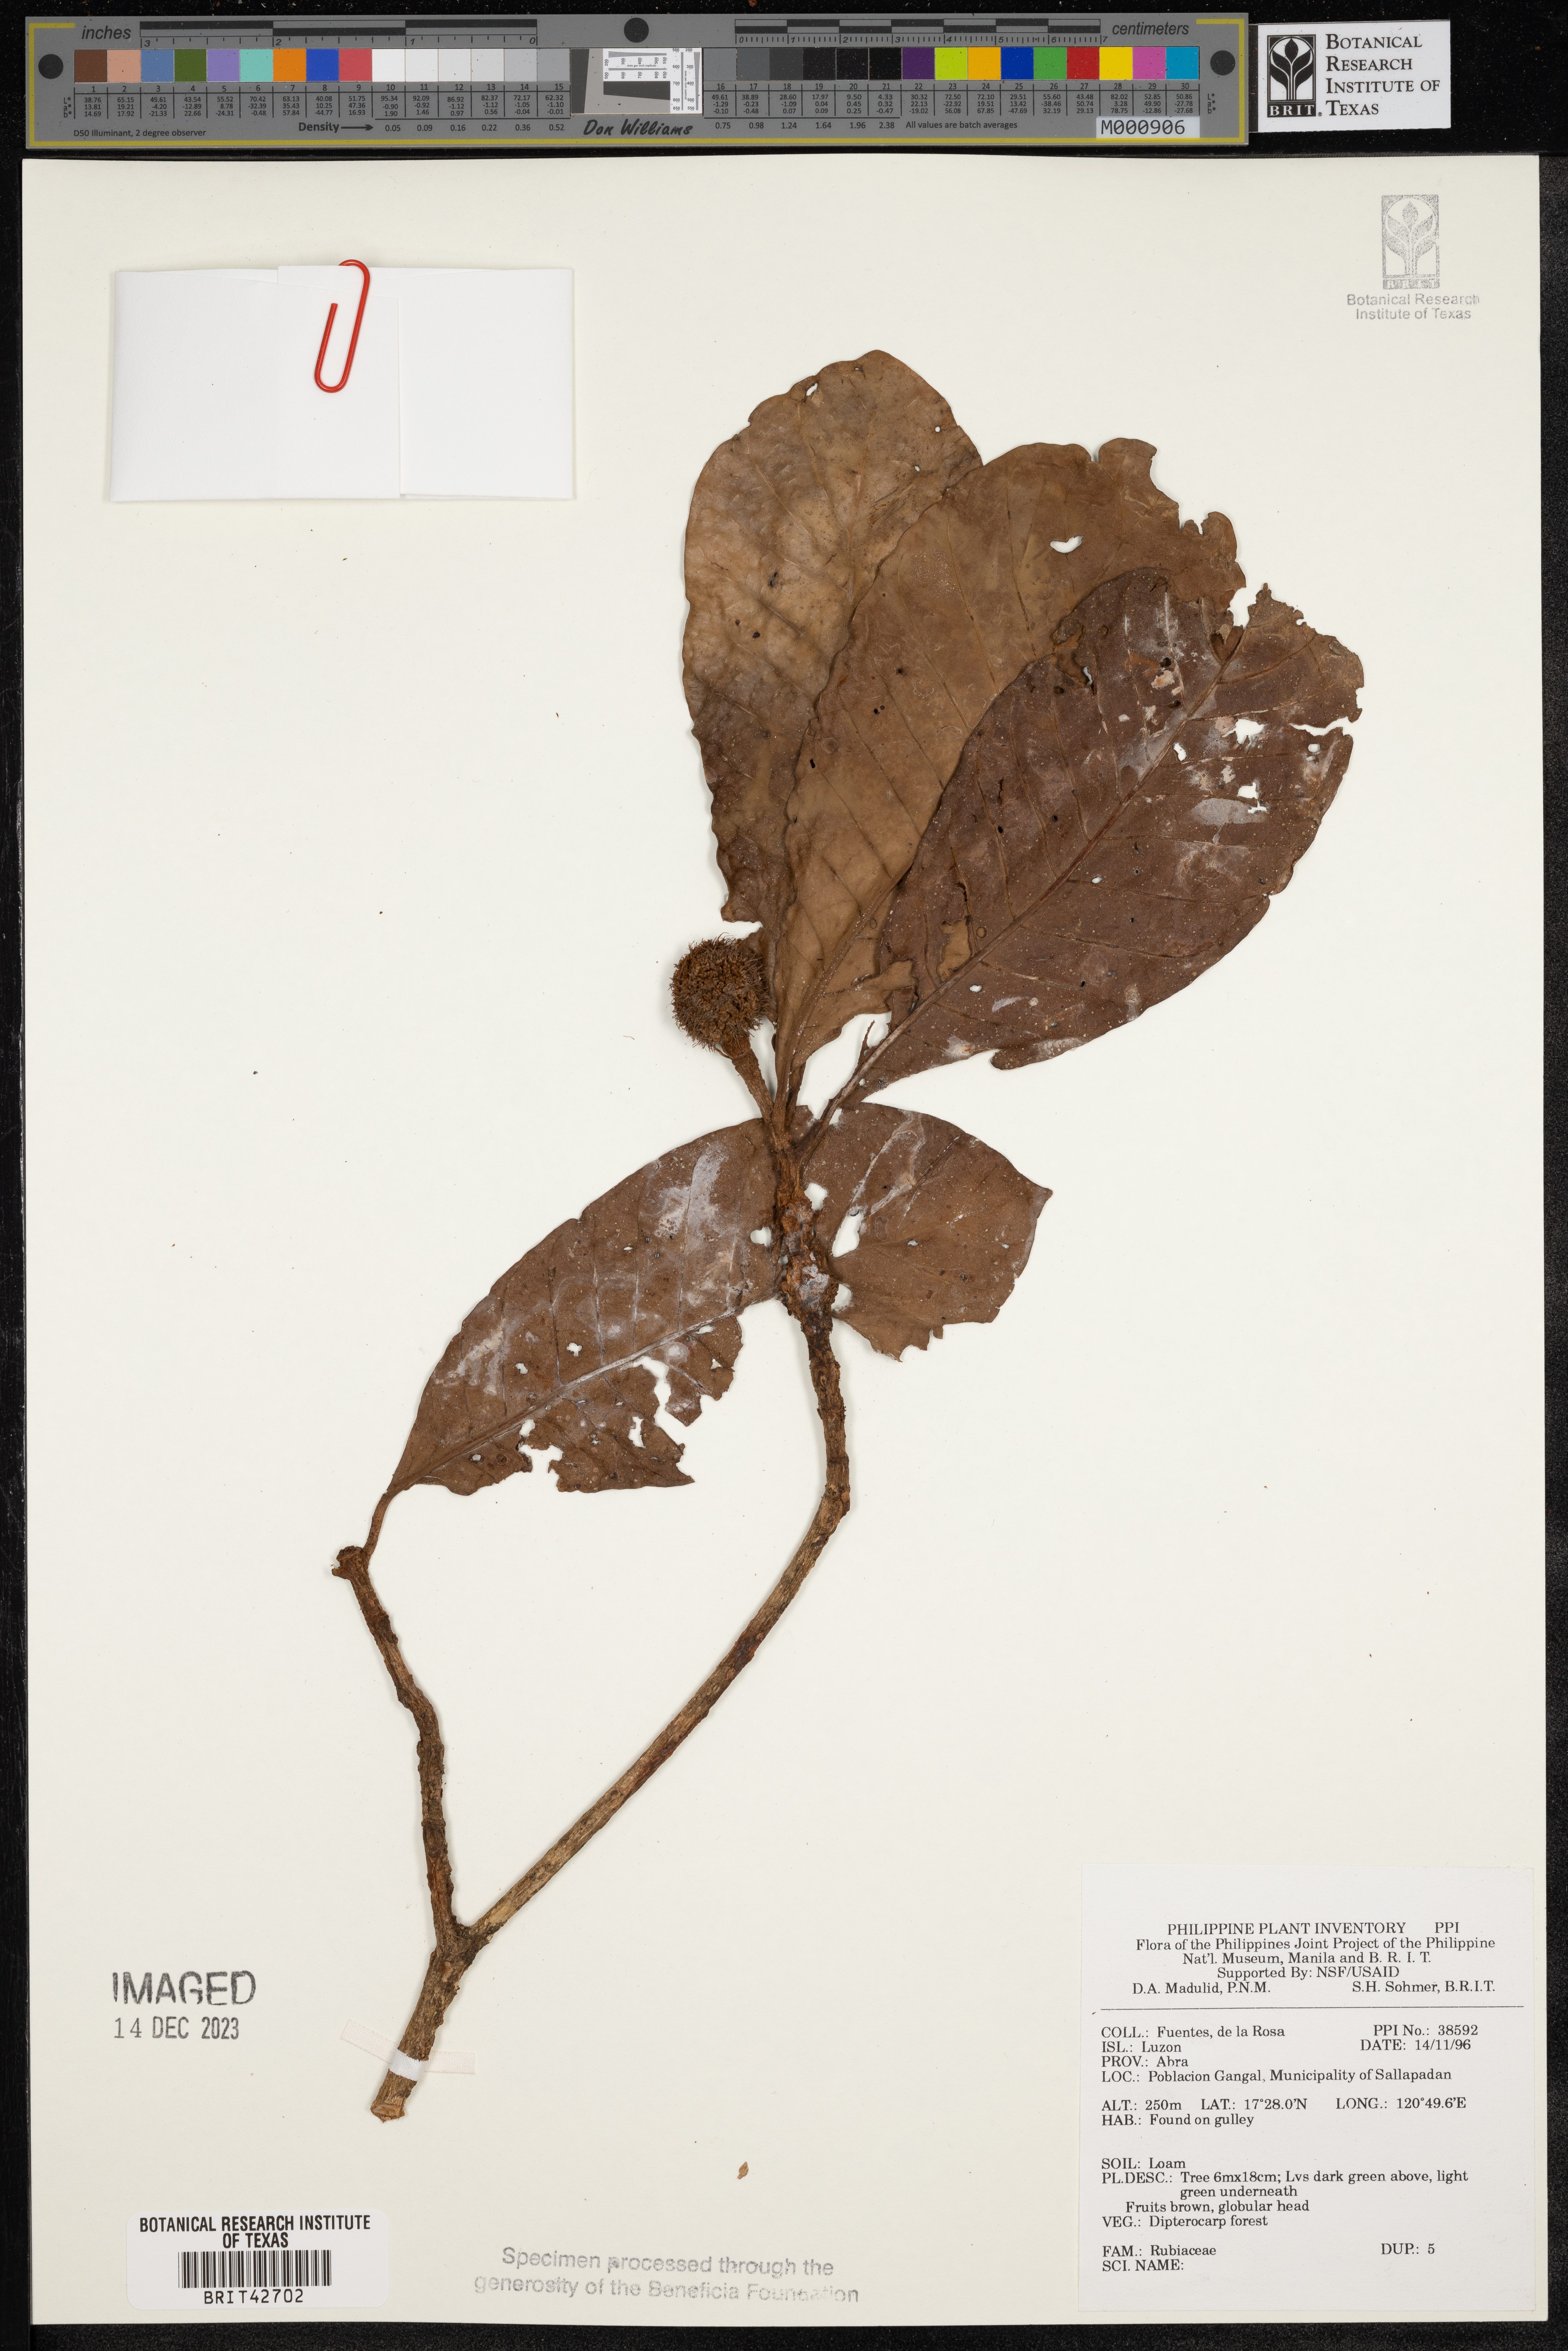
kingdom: Plantae
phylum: Tracheophyta
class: Magnoliopsida
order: Gentianales
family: Rubiaceae
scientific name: Rubiaceae
